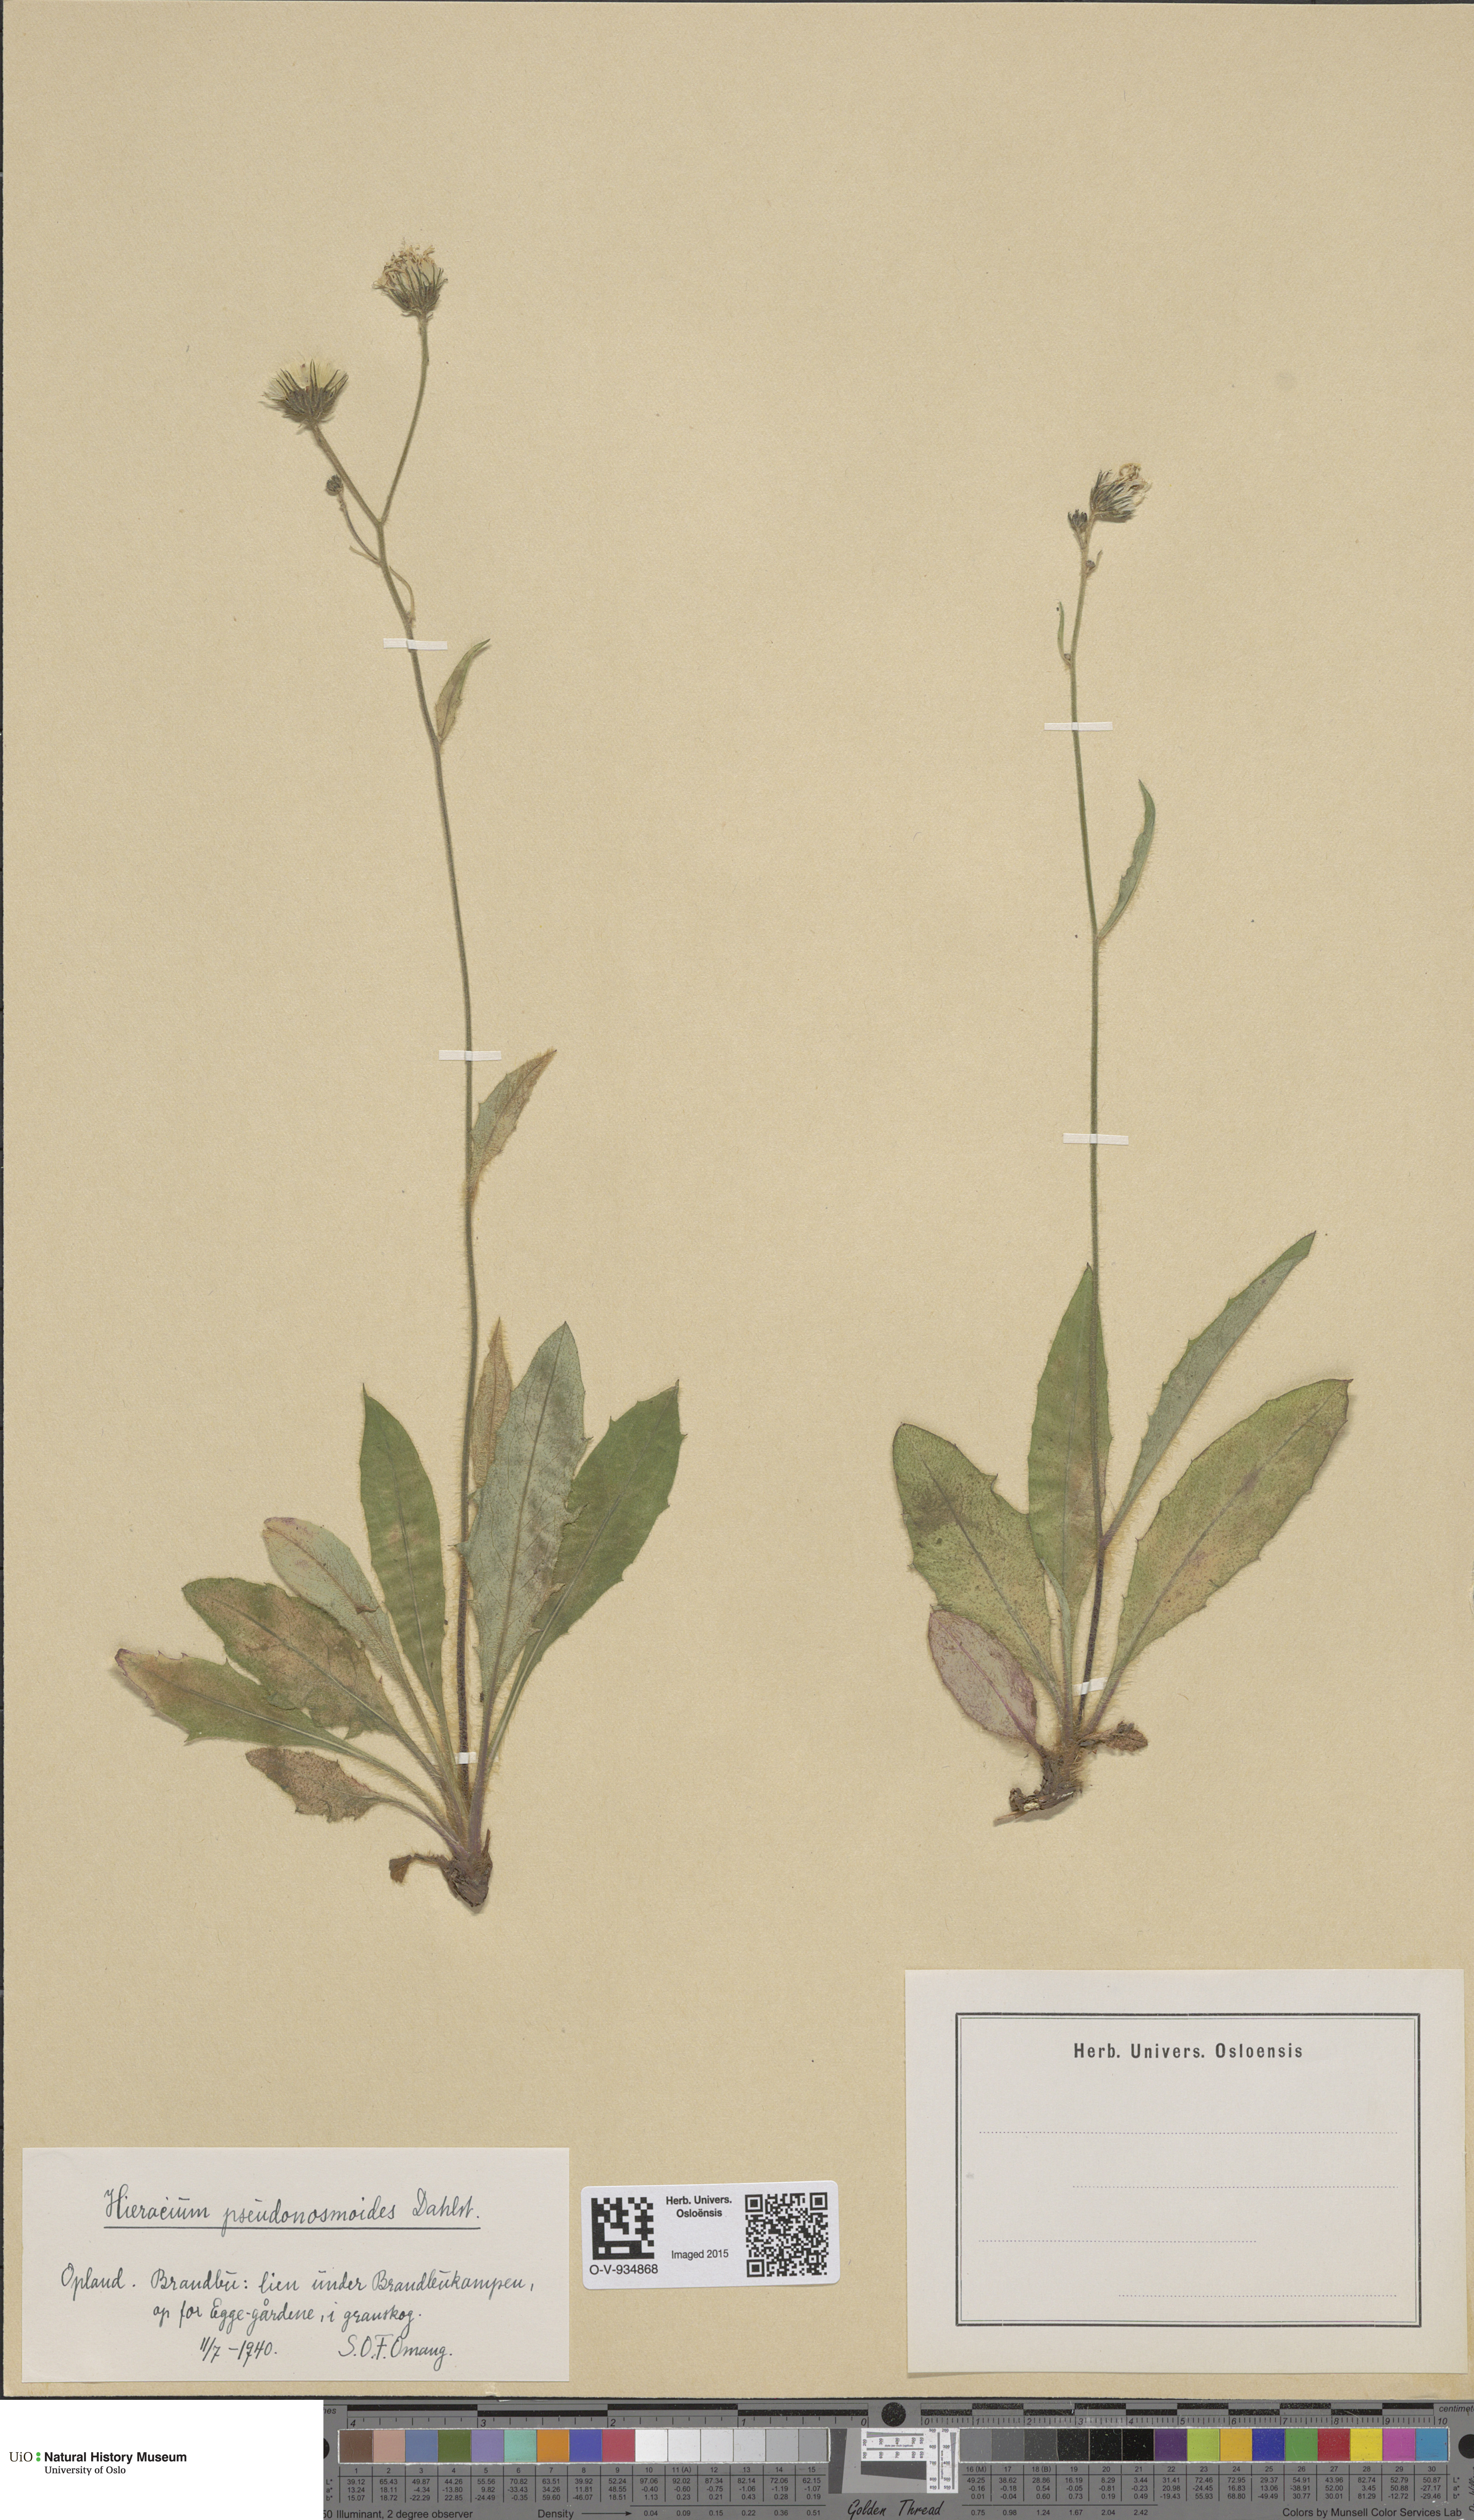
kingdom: Plantae
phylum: Tracheophyta
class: Magnoliopsida
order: Asterales
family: Asteraceae
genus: Hieracium
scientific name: Hieracium saxifragum
